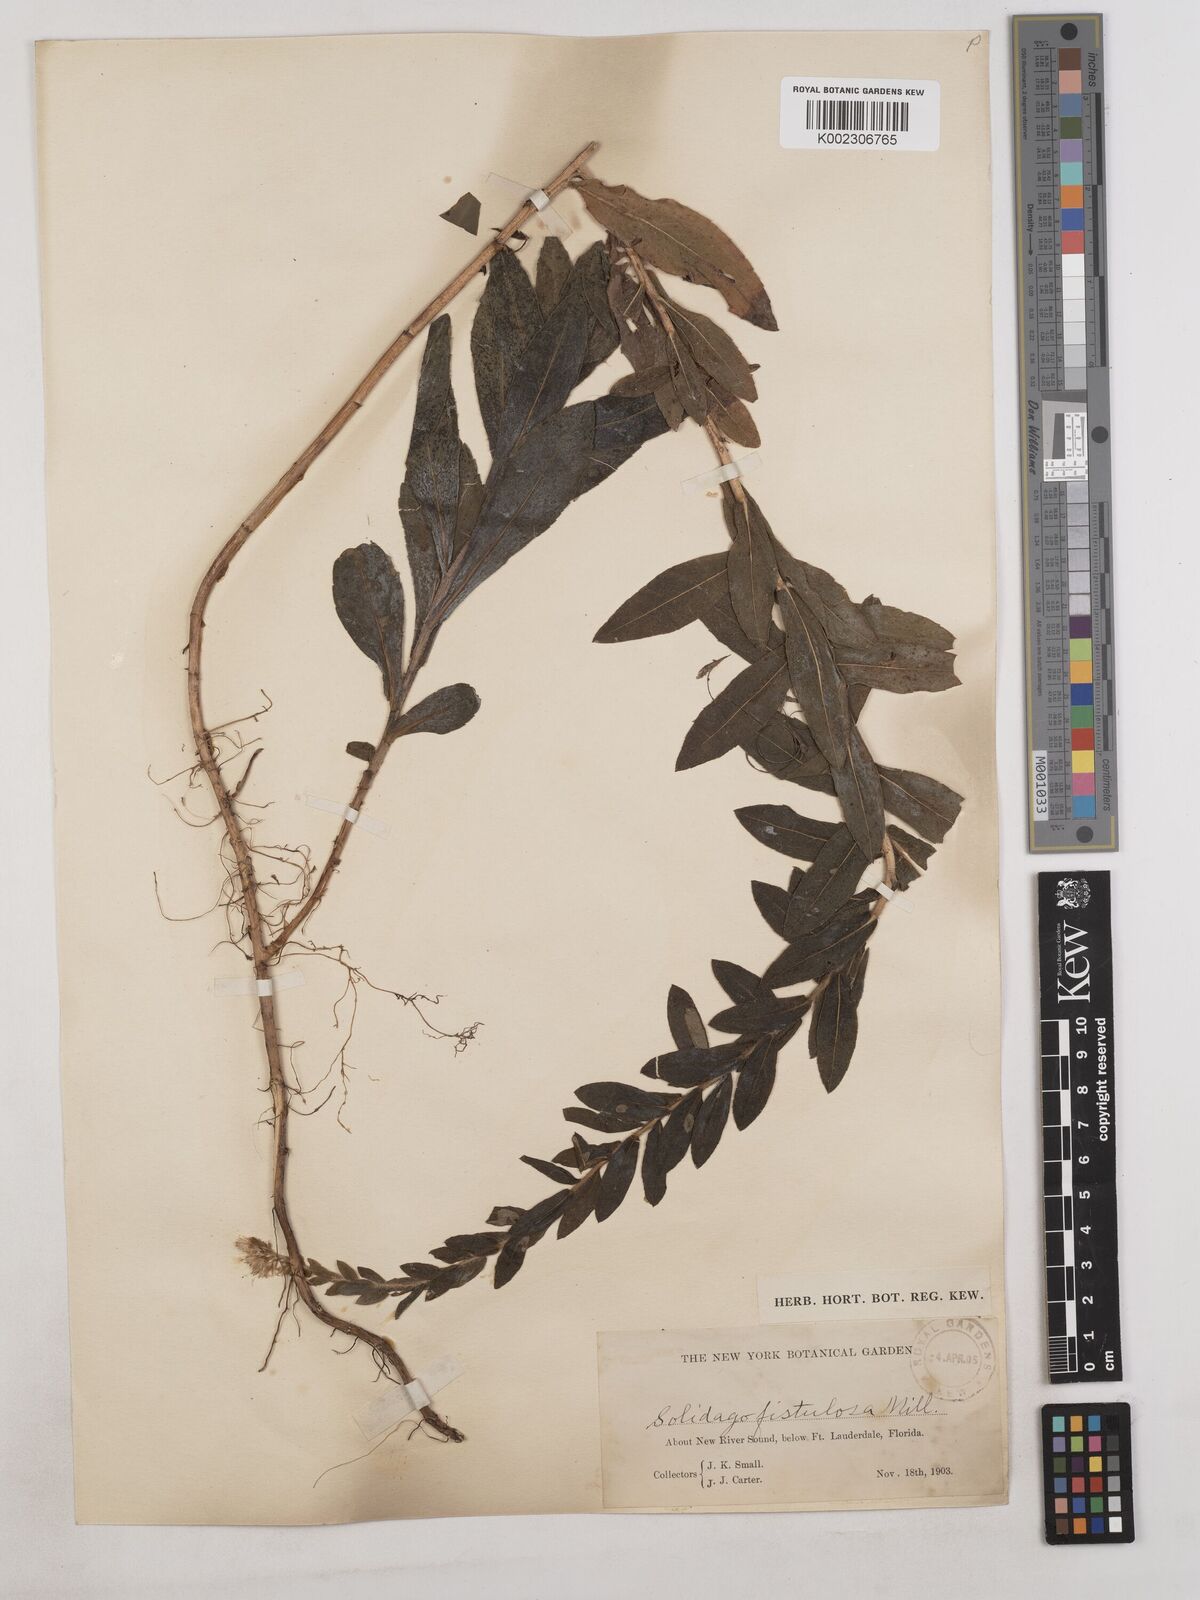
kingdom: Plantae
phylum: Tracheophyta
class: Magnoliopsida
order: Asterales
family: Asteraceae
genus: Solidago
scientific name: Solidago fistulosa
